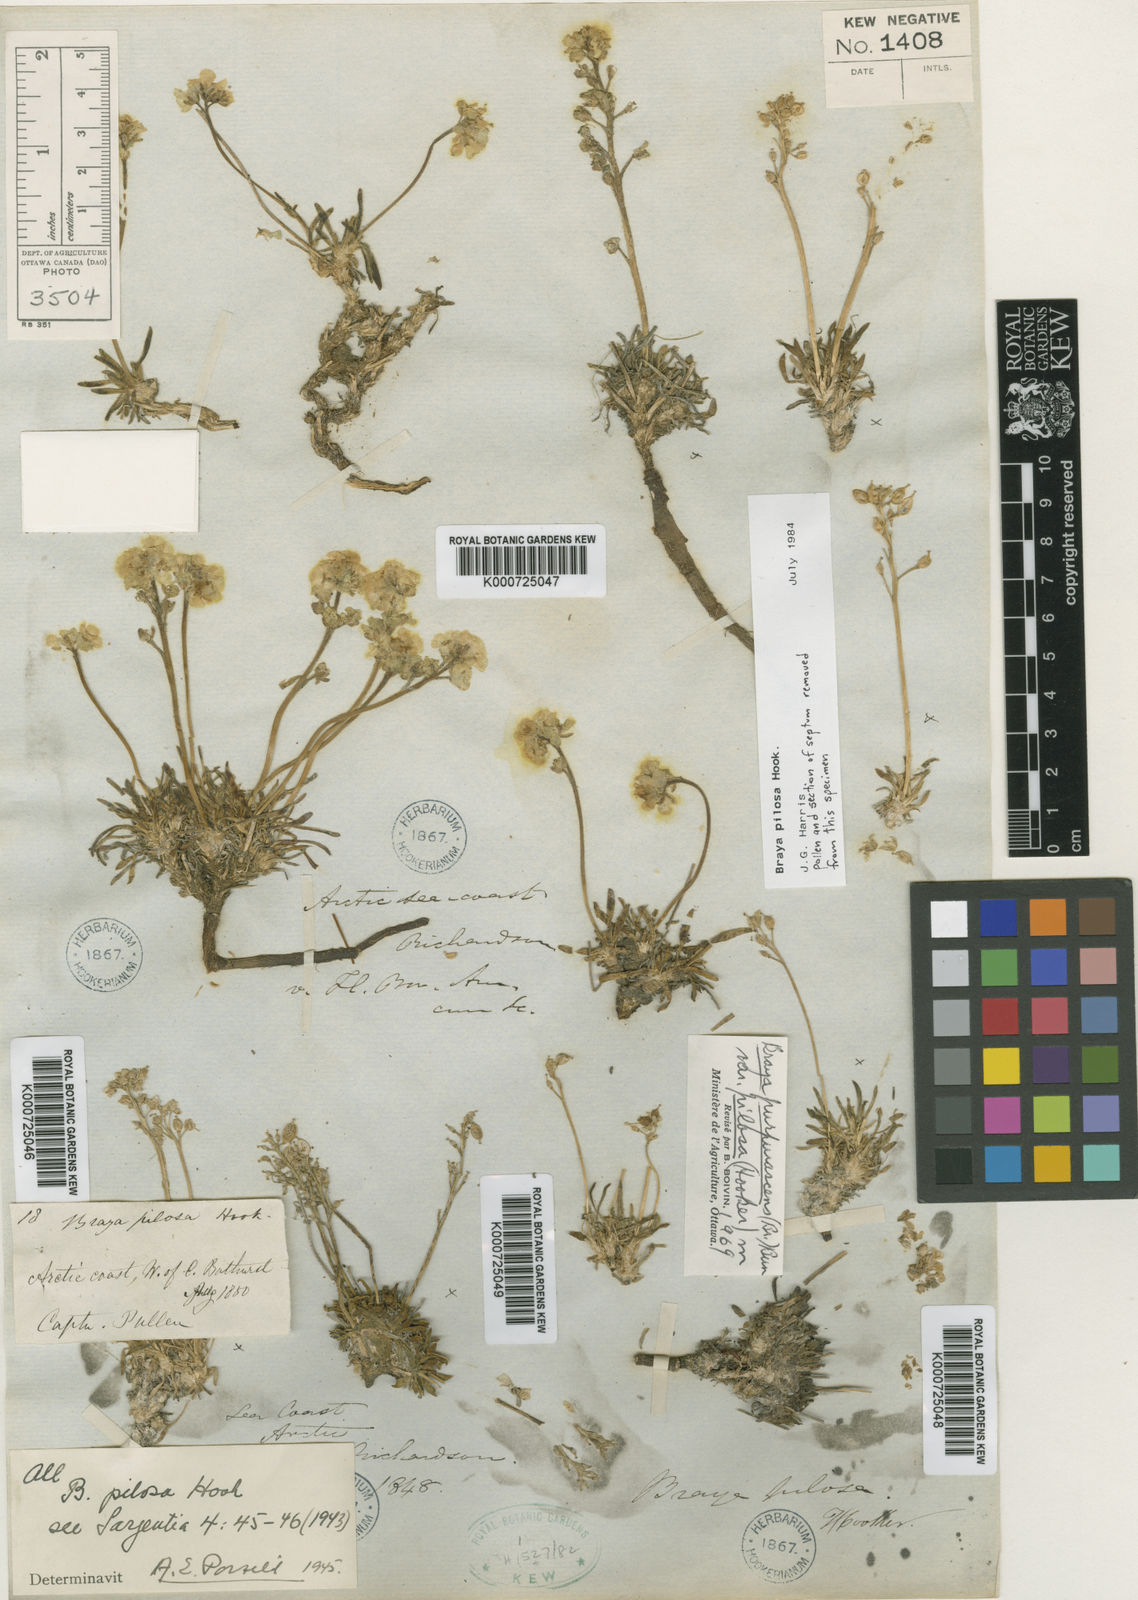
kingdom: Plantae
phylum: Tracheophyta
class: Magnoliopsida
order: Brassicales
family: Brassicaceae
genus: Braya
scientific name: Braya pilosa
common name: Hairy braya
